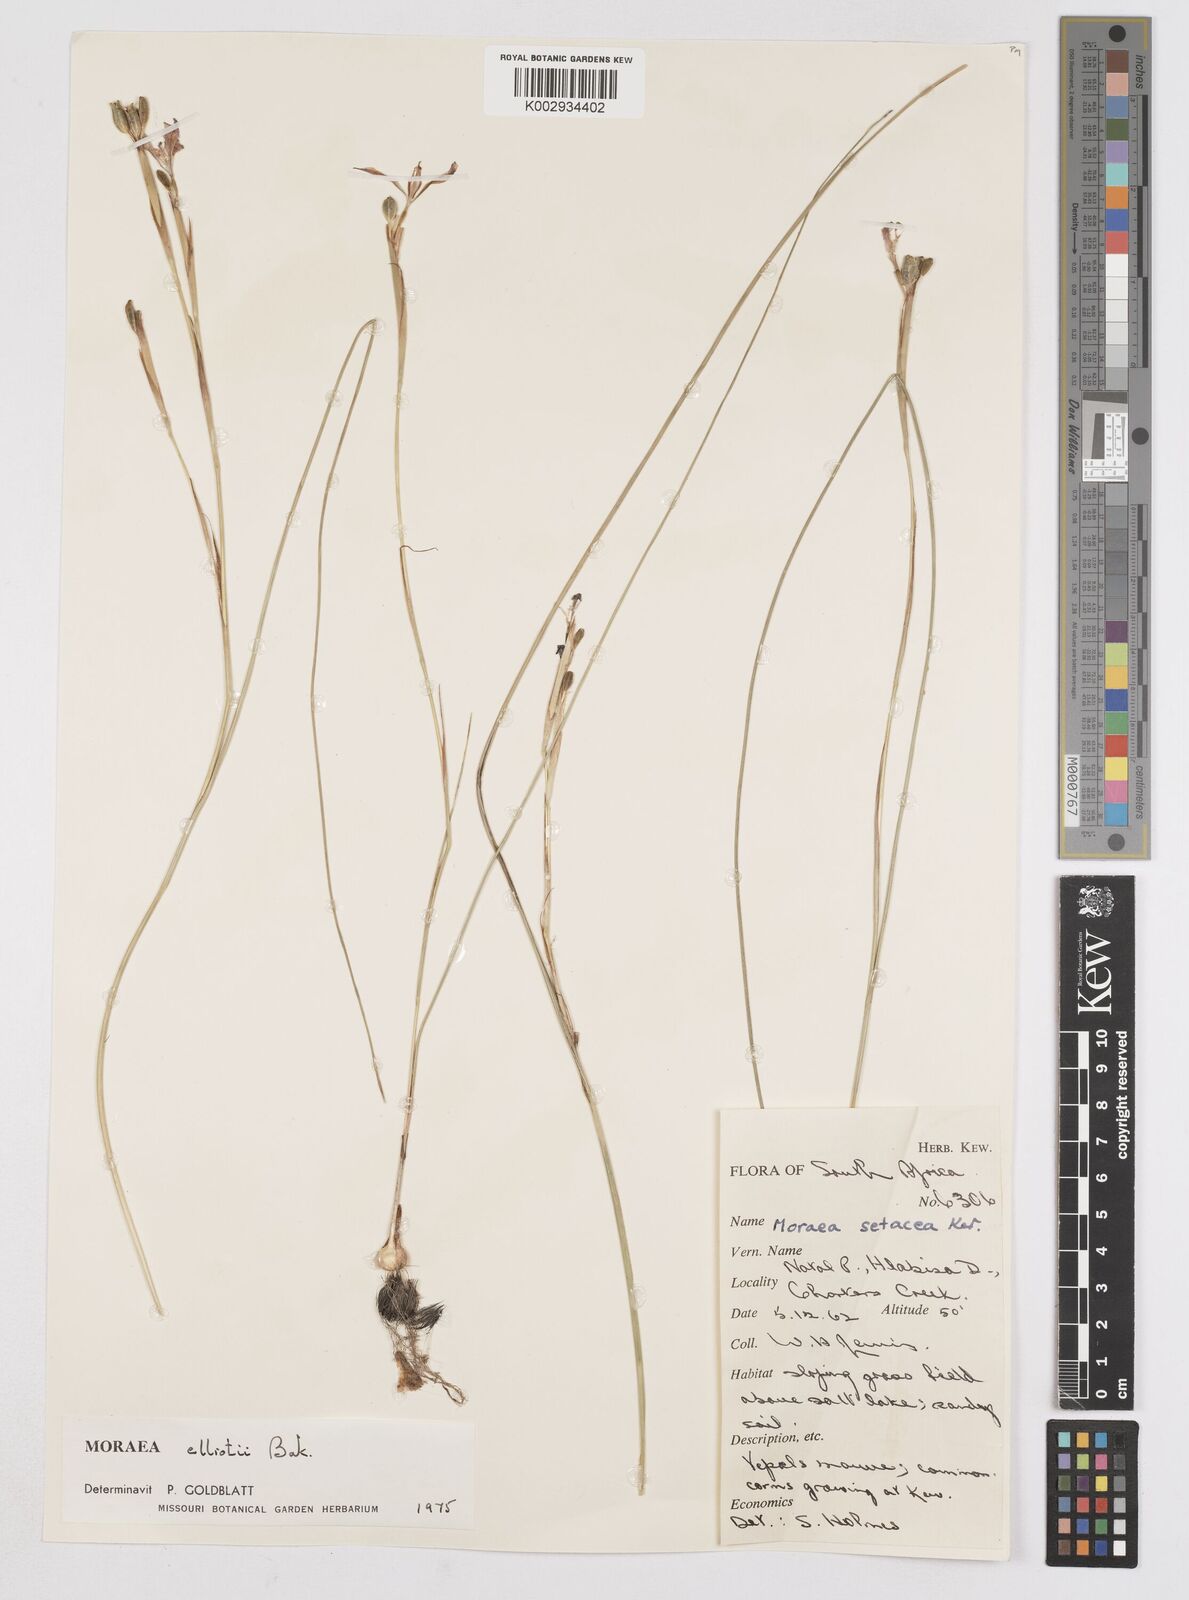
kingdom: Plantae
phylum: Tracheophyta
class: Liliopsida
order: Asparagales
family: Iridaceae
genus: Moraea
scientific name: Moraea elliotii
